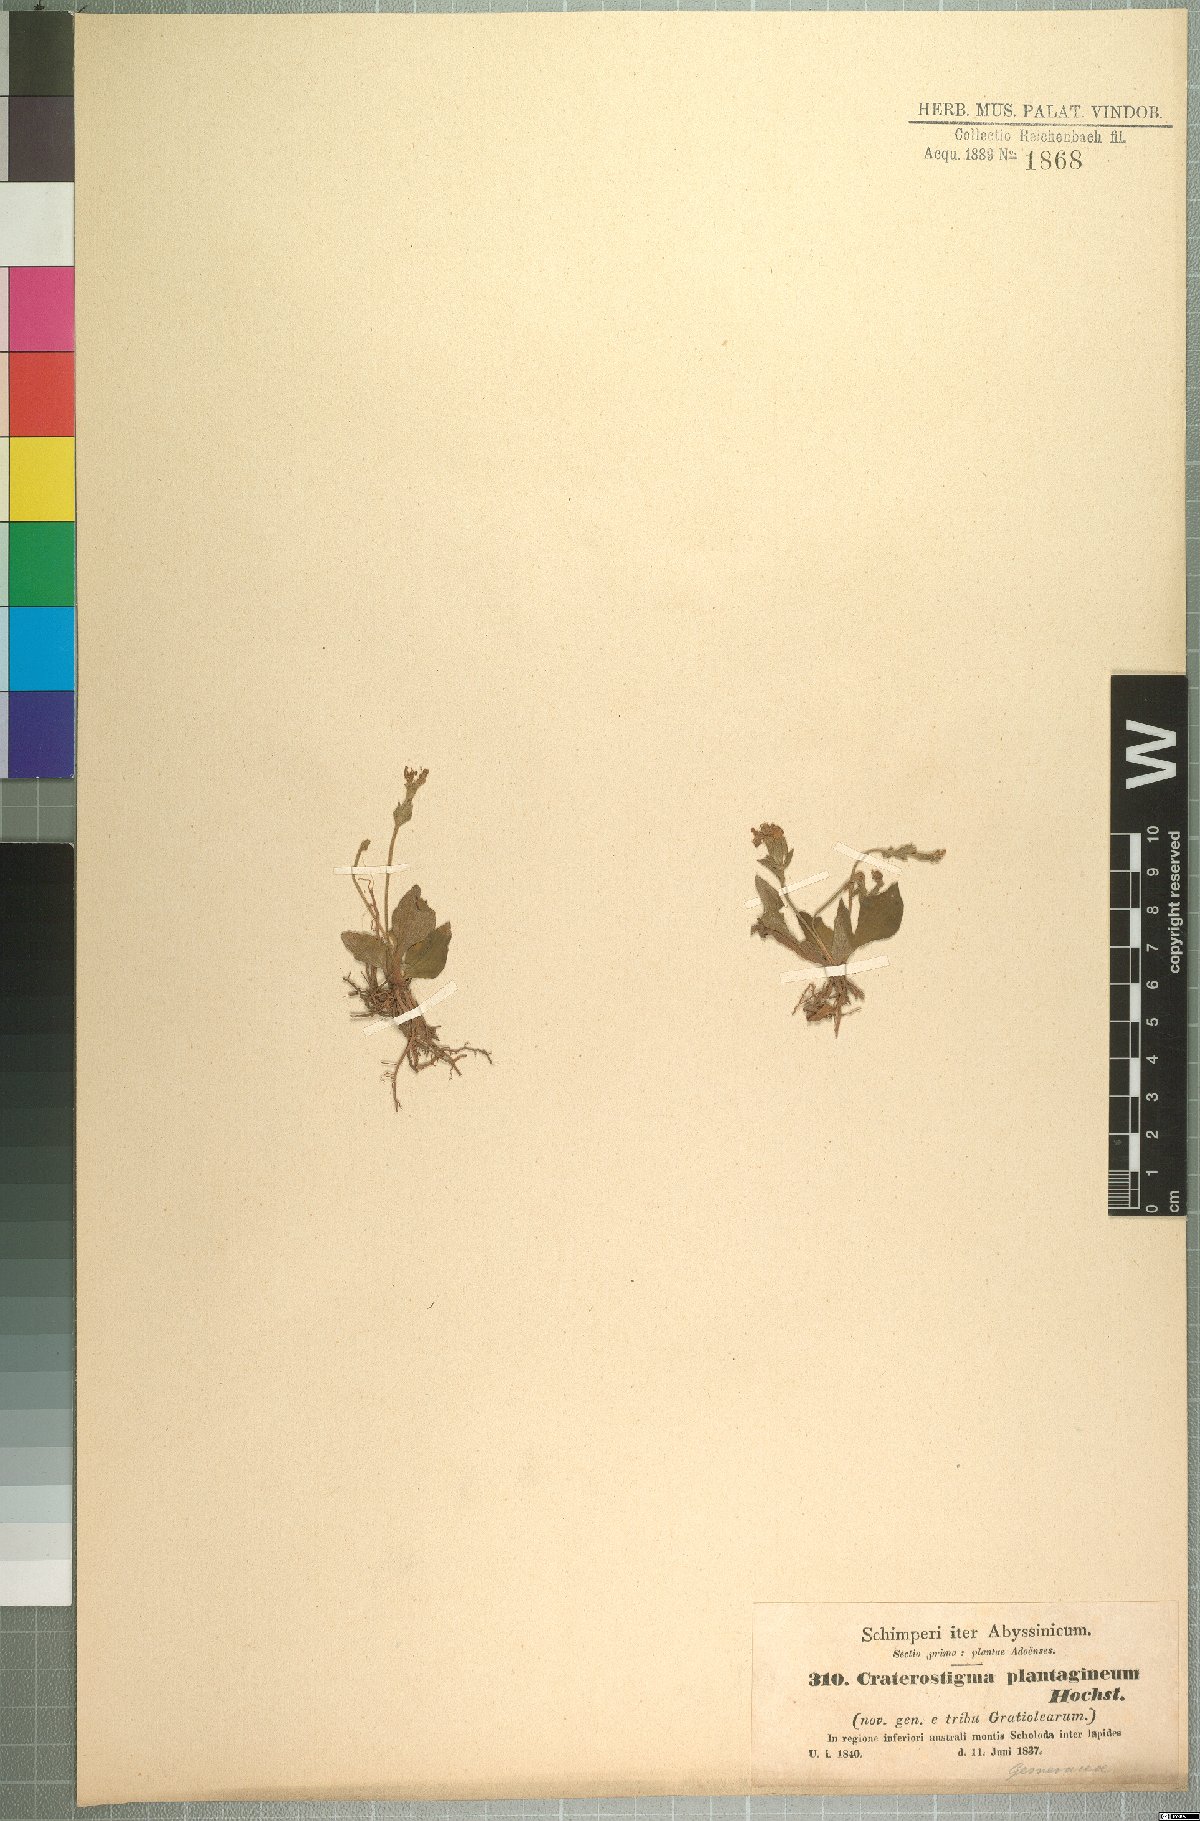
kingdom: Plantae
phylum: Tracheophyta
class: Magnoliopsida
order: Lamiales
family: Linderniaceae
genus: Craterostigma
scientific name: Craterostigma plantagineum
